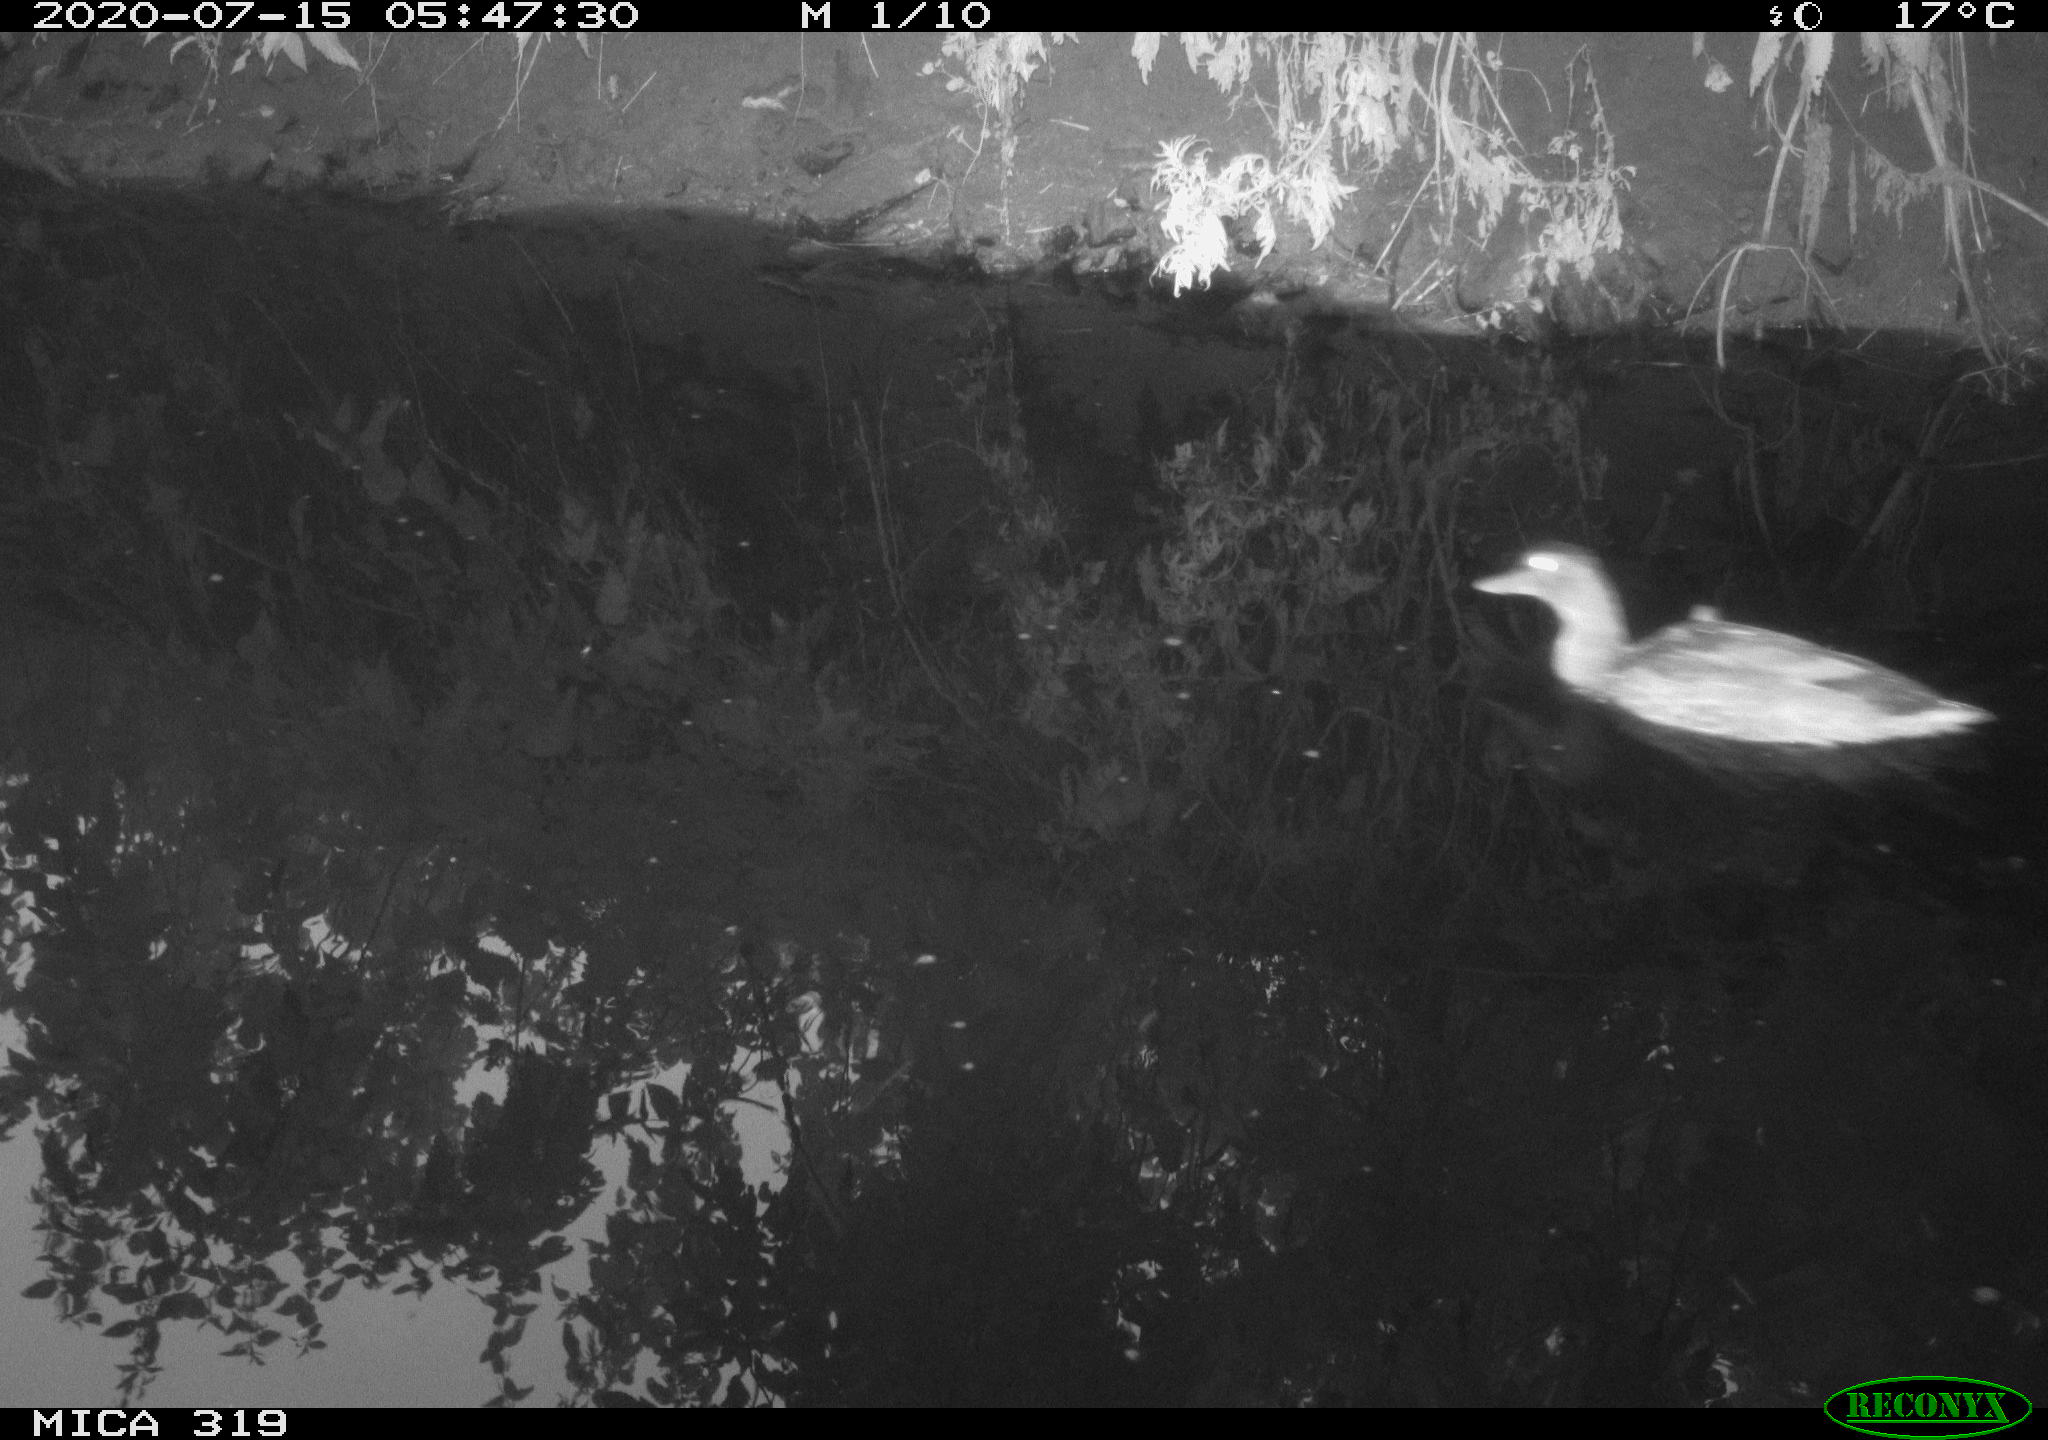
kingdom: Animalia
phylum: Chordata
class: Aves
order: Anseriformes
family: Anatidae
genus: Anas
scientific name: Anas platyrhynchos
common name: Mallard
